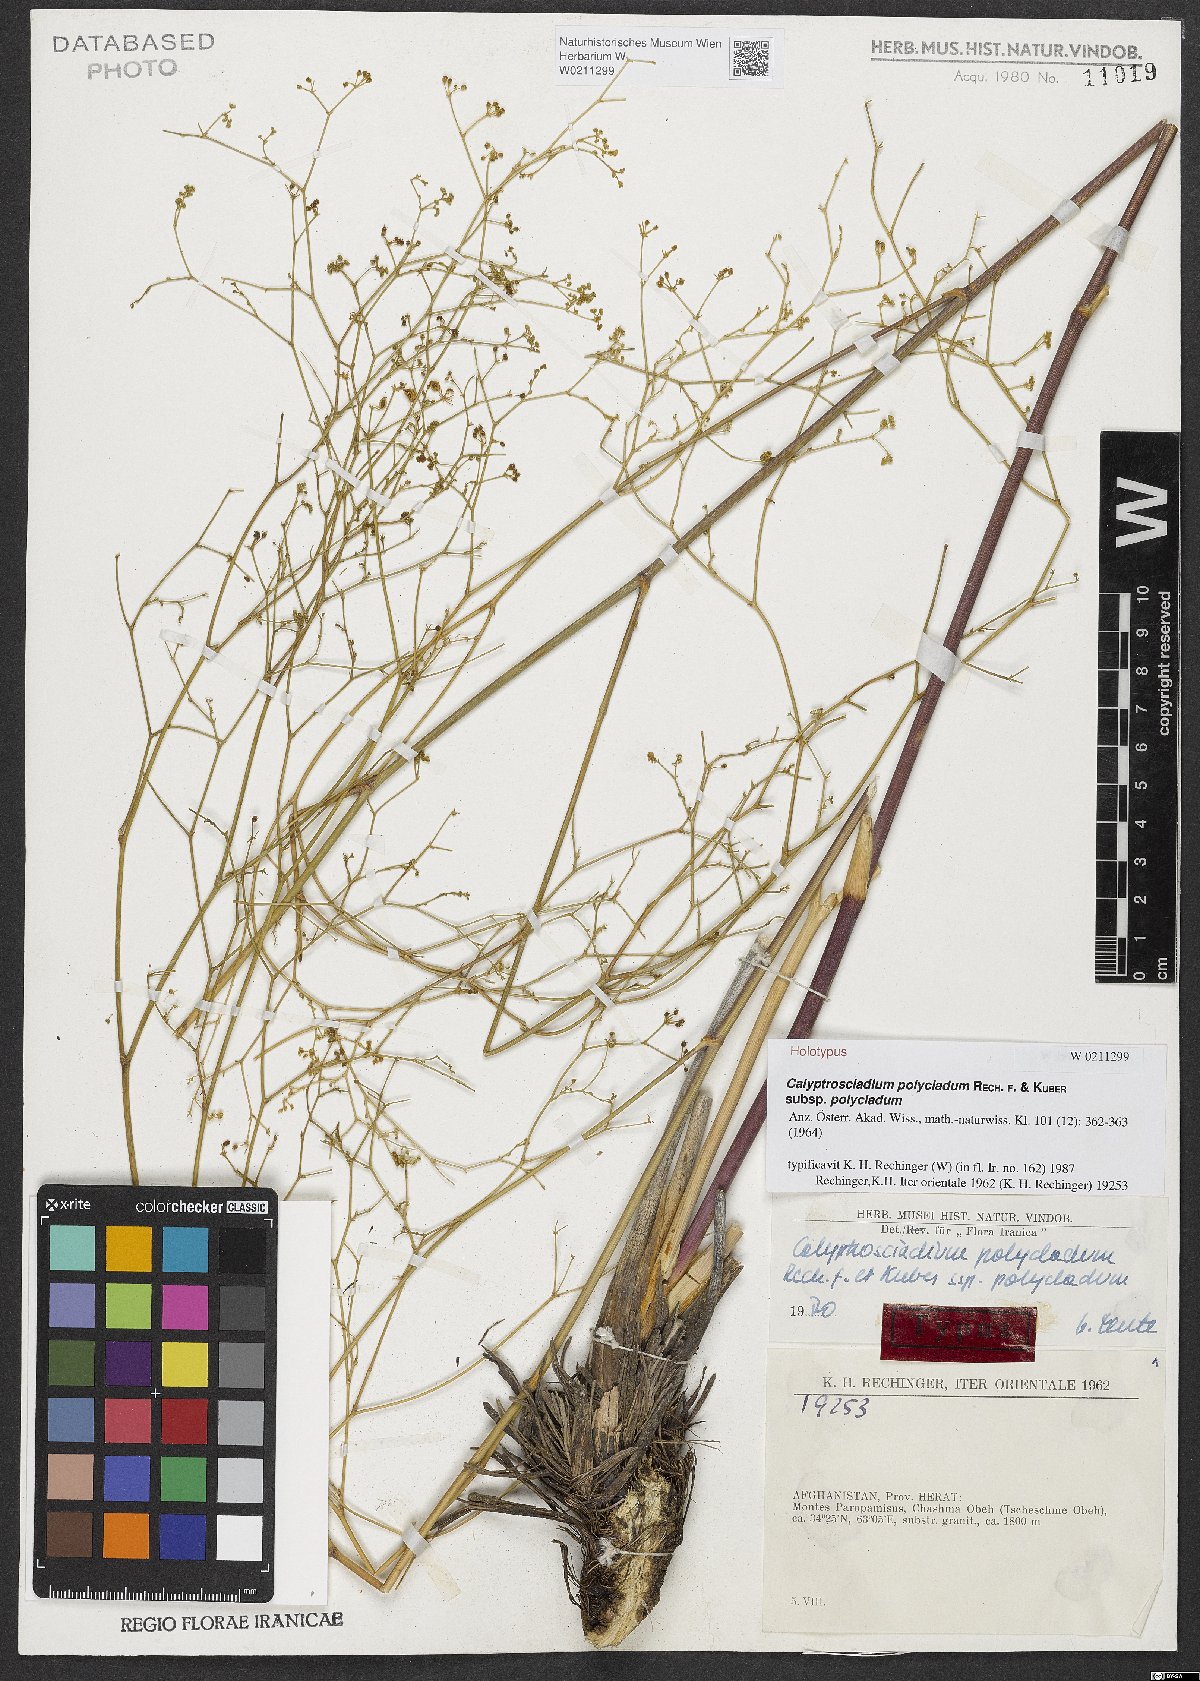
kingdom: Plantae
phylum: Tracheophyta
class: Magnoliopsida
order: Apiales
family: Apiaceae
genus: Calyptrosciadium
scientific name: Calyptrosciadium bungei
